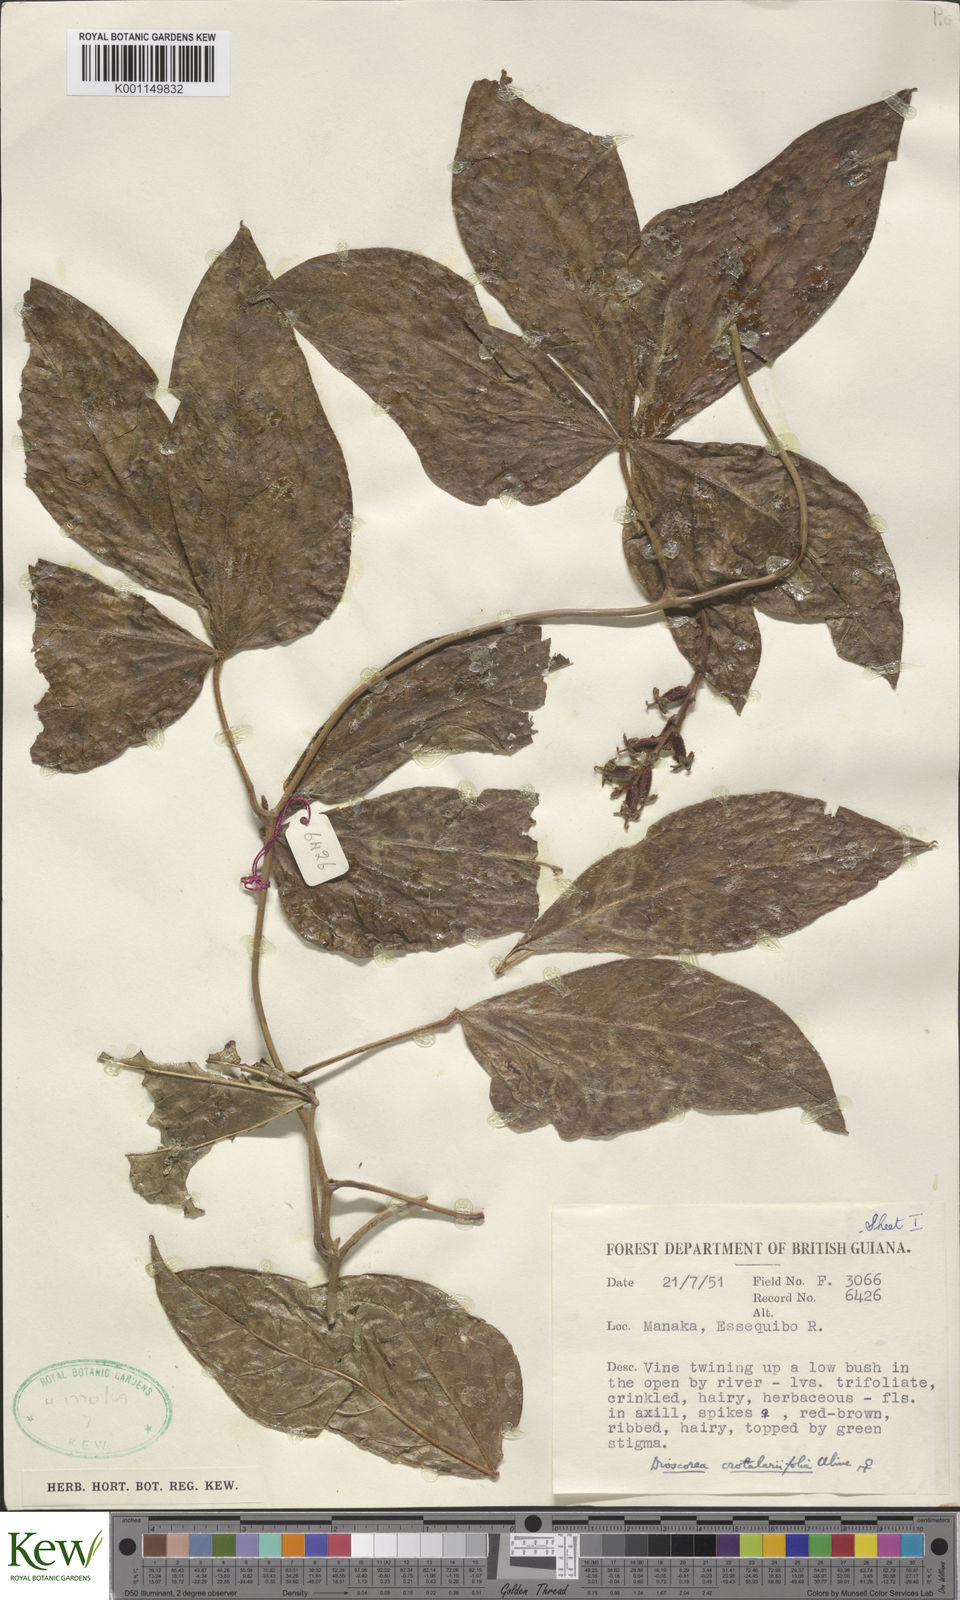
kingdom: Plantae
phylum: Tracheophyta
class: Liliopsida
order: Dioscoreales
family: Dioscoreaceae
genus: Dioscorea
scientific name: Dioscorea crotalariifolia
